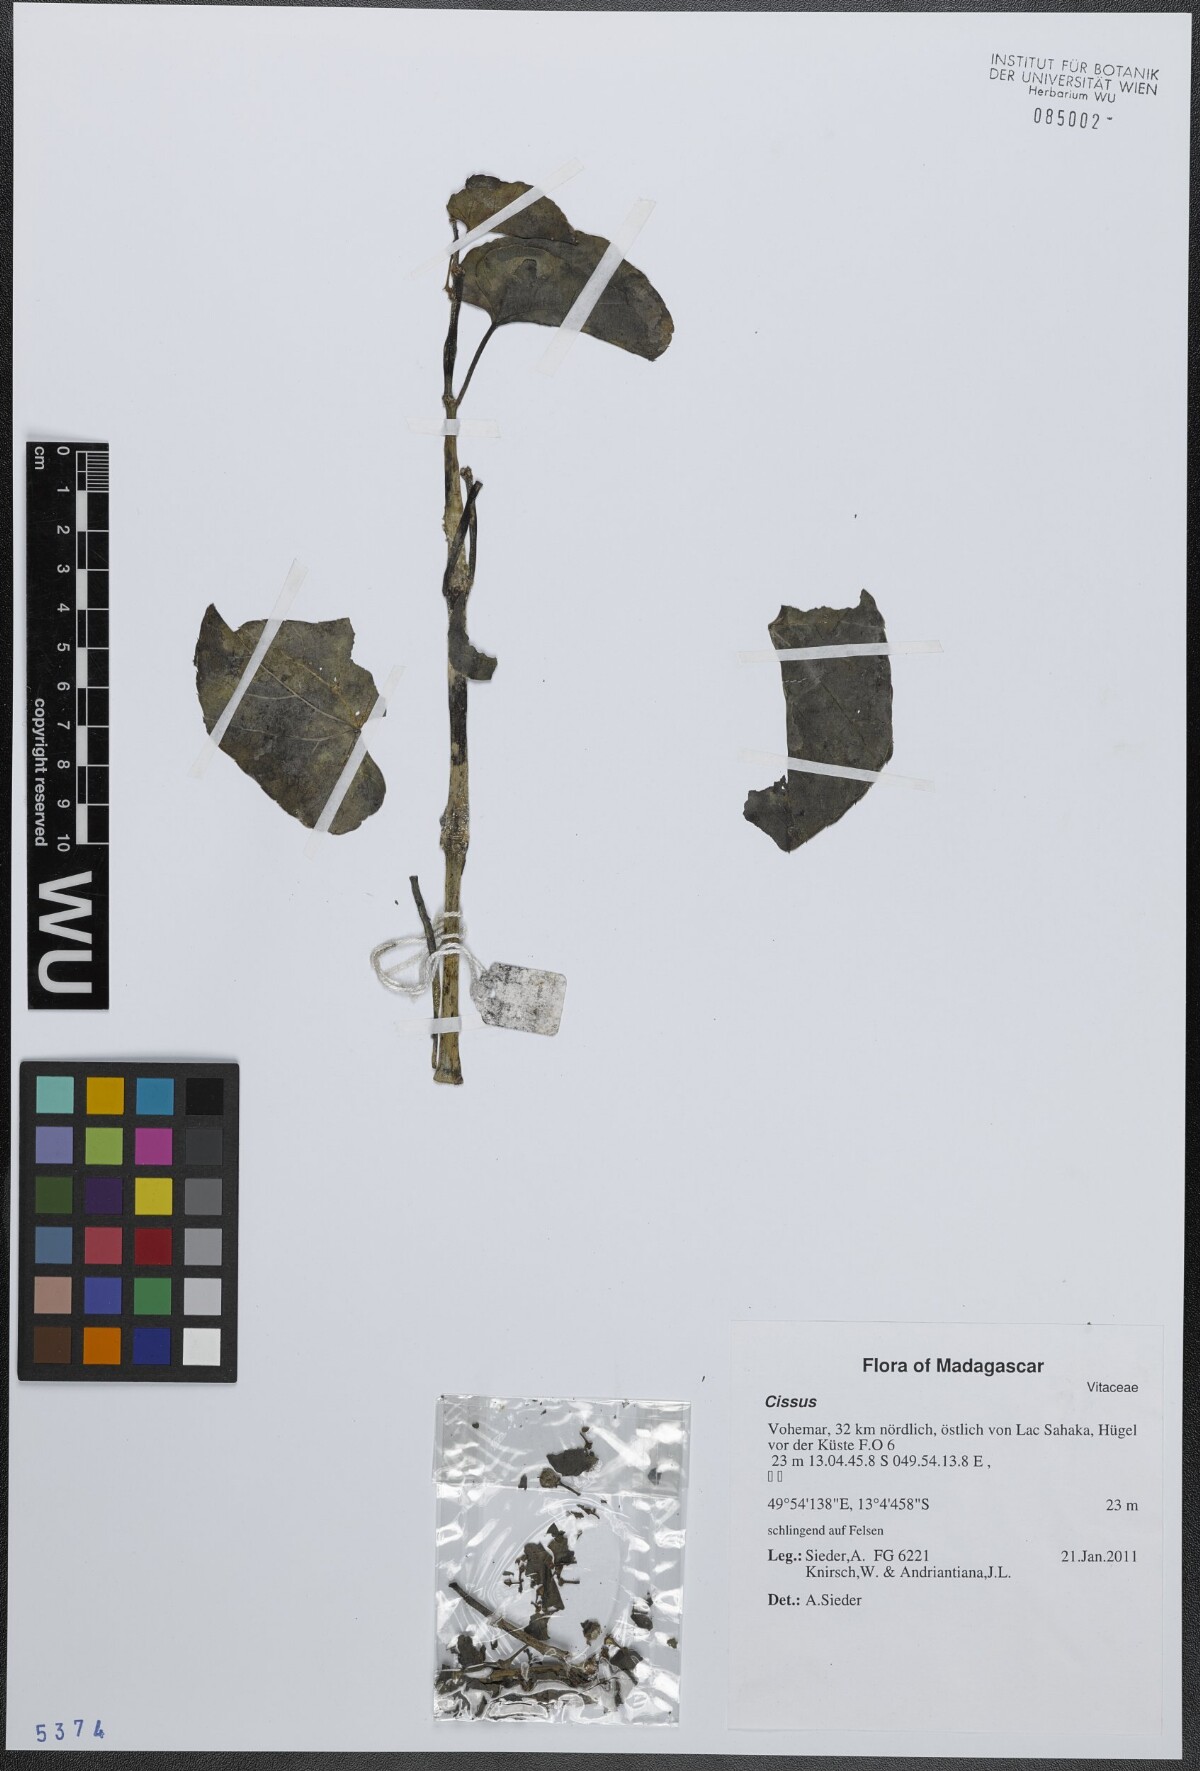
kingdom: Plantae
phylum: Tracheophyta
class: Magnoliopsida
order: Vitales
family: Vitaceae
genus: Cissus
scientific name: Cissus
